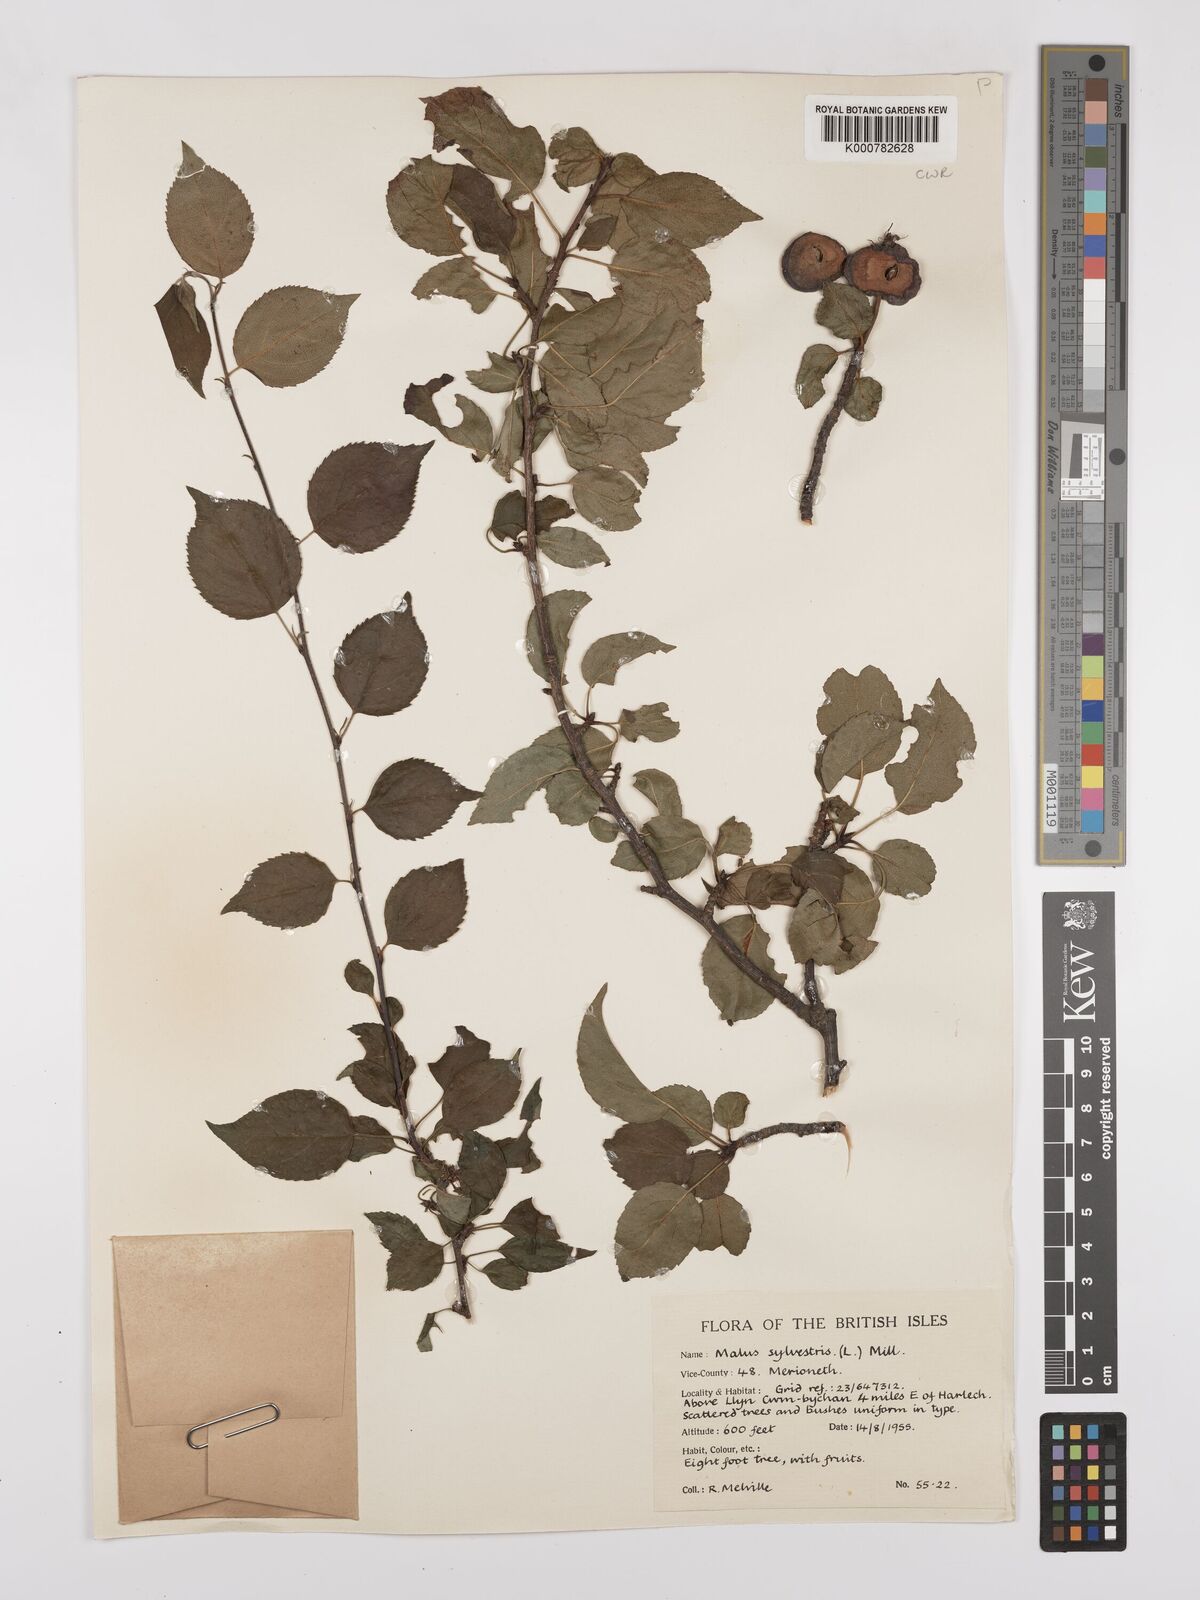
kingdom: Plantae
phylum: Tracheophyta
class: Magnoliopsida
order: Rosales
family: Rosaceae
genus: Malus
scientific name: Malus sylvestris
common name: Crab apple
